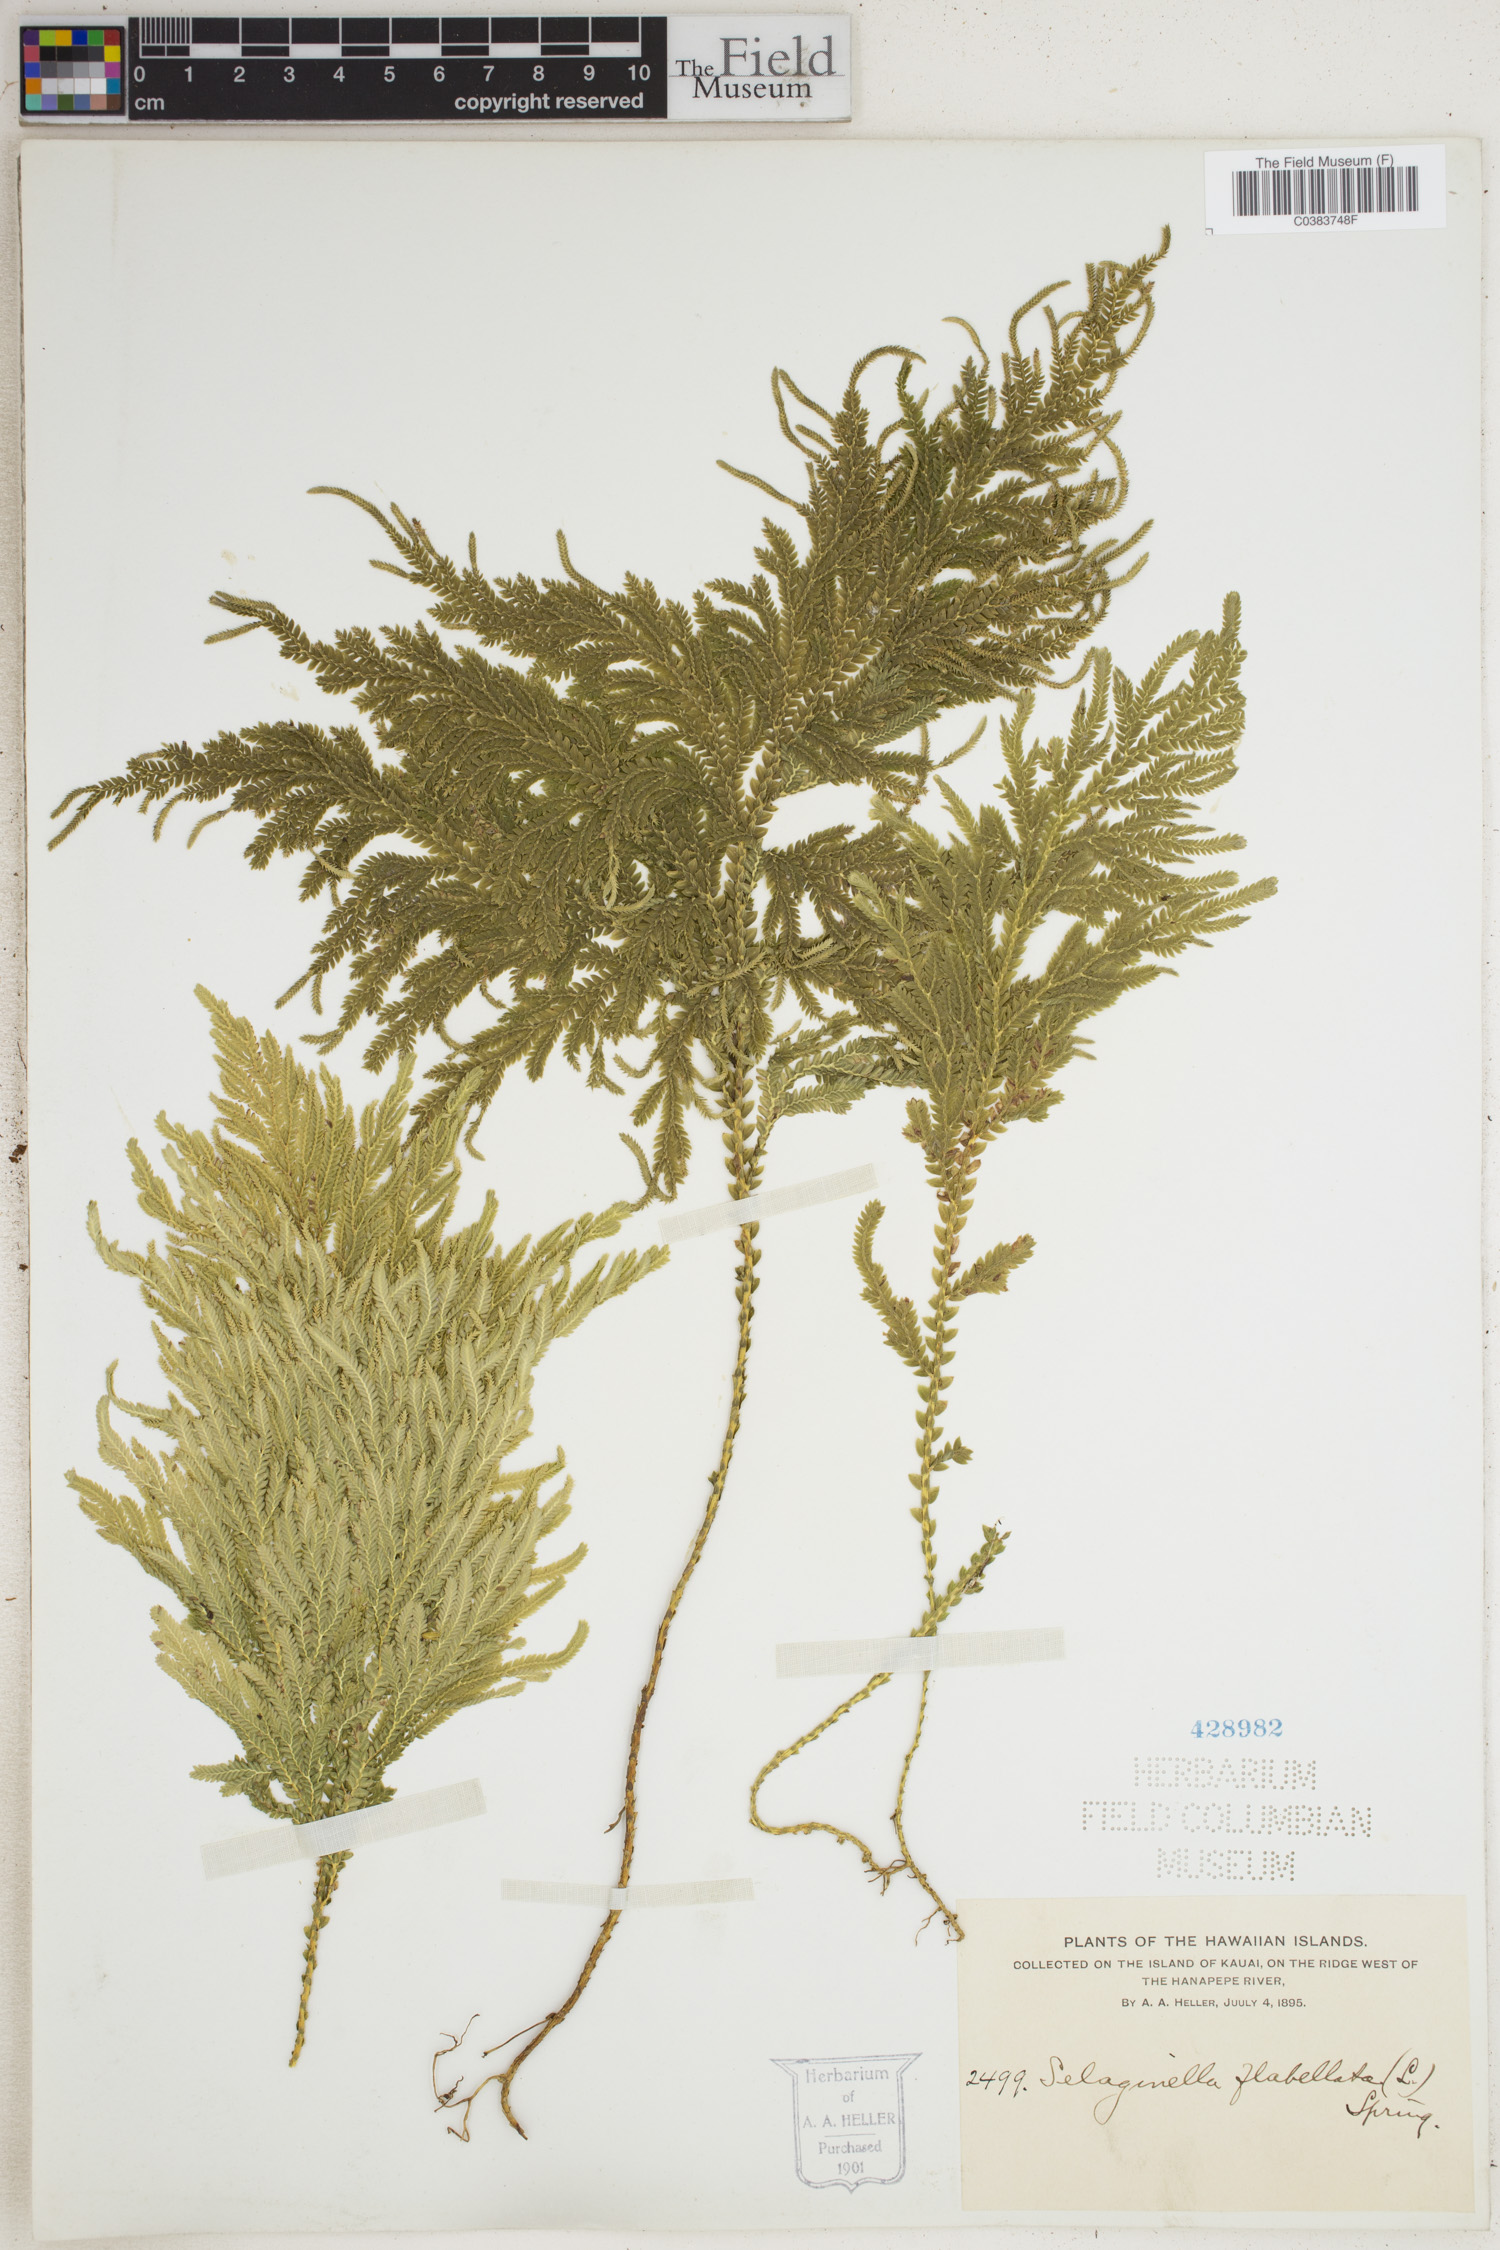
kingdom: Plantae
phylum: Tracheophyta
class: Lycopodiopsida
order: Selaginellales
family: Selaginellaceae
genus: Selaginella
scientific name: Selaginella flabellata
